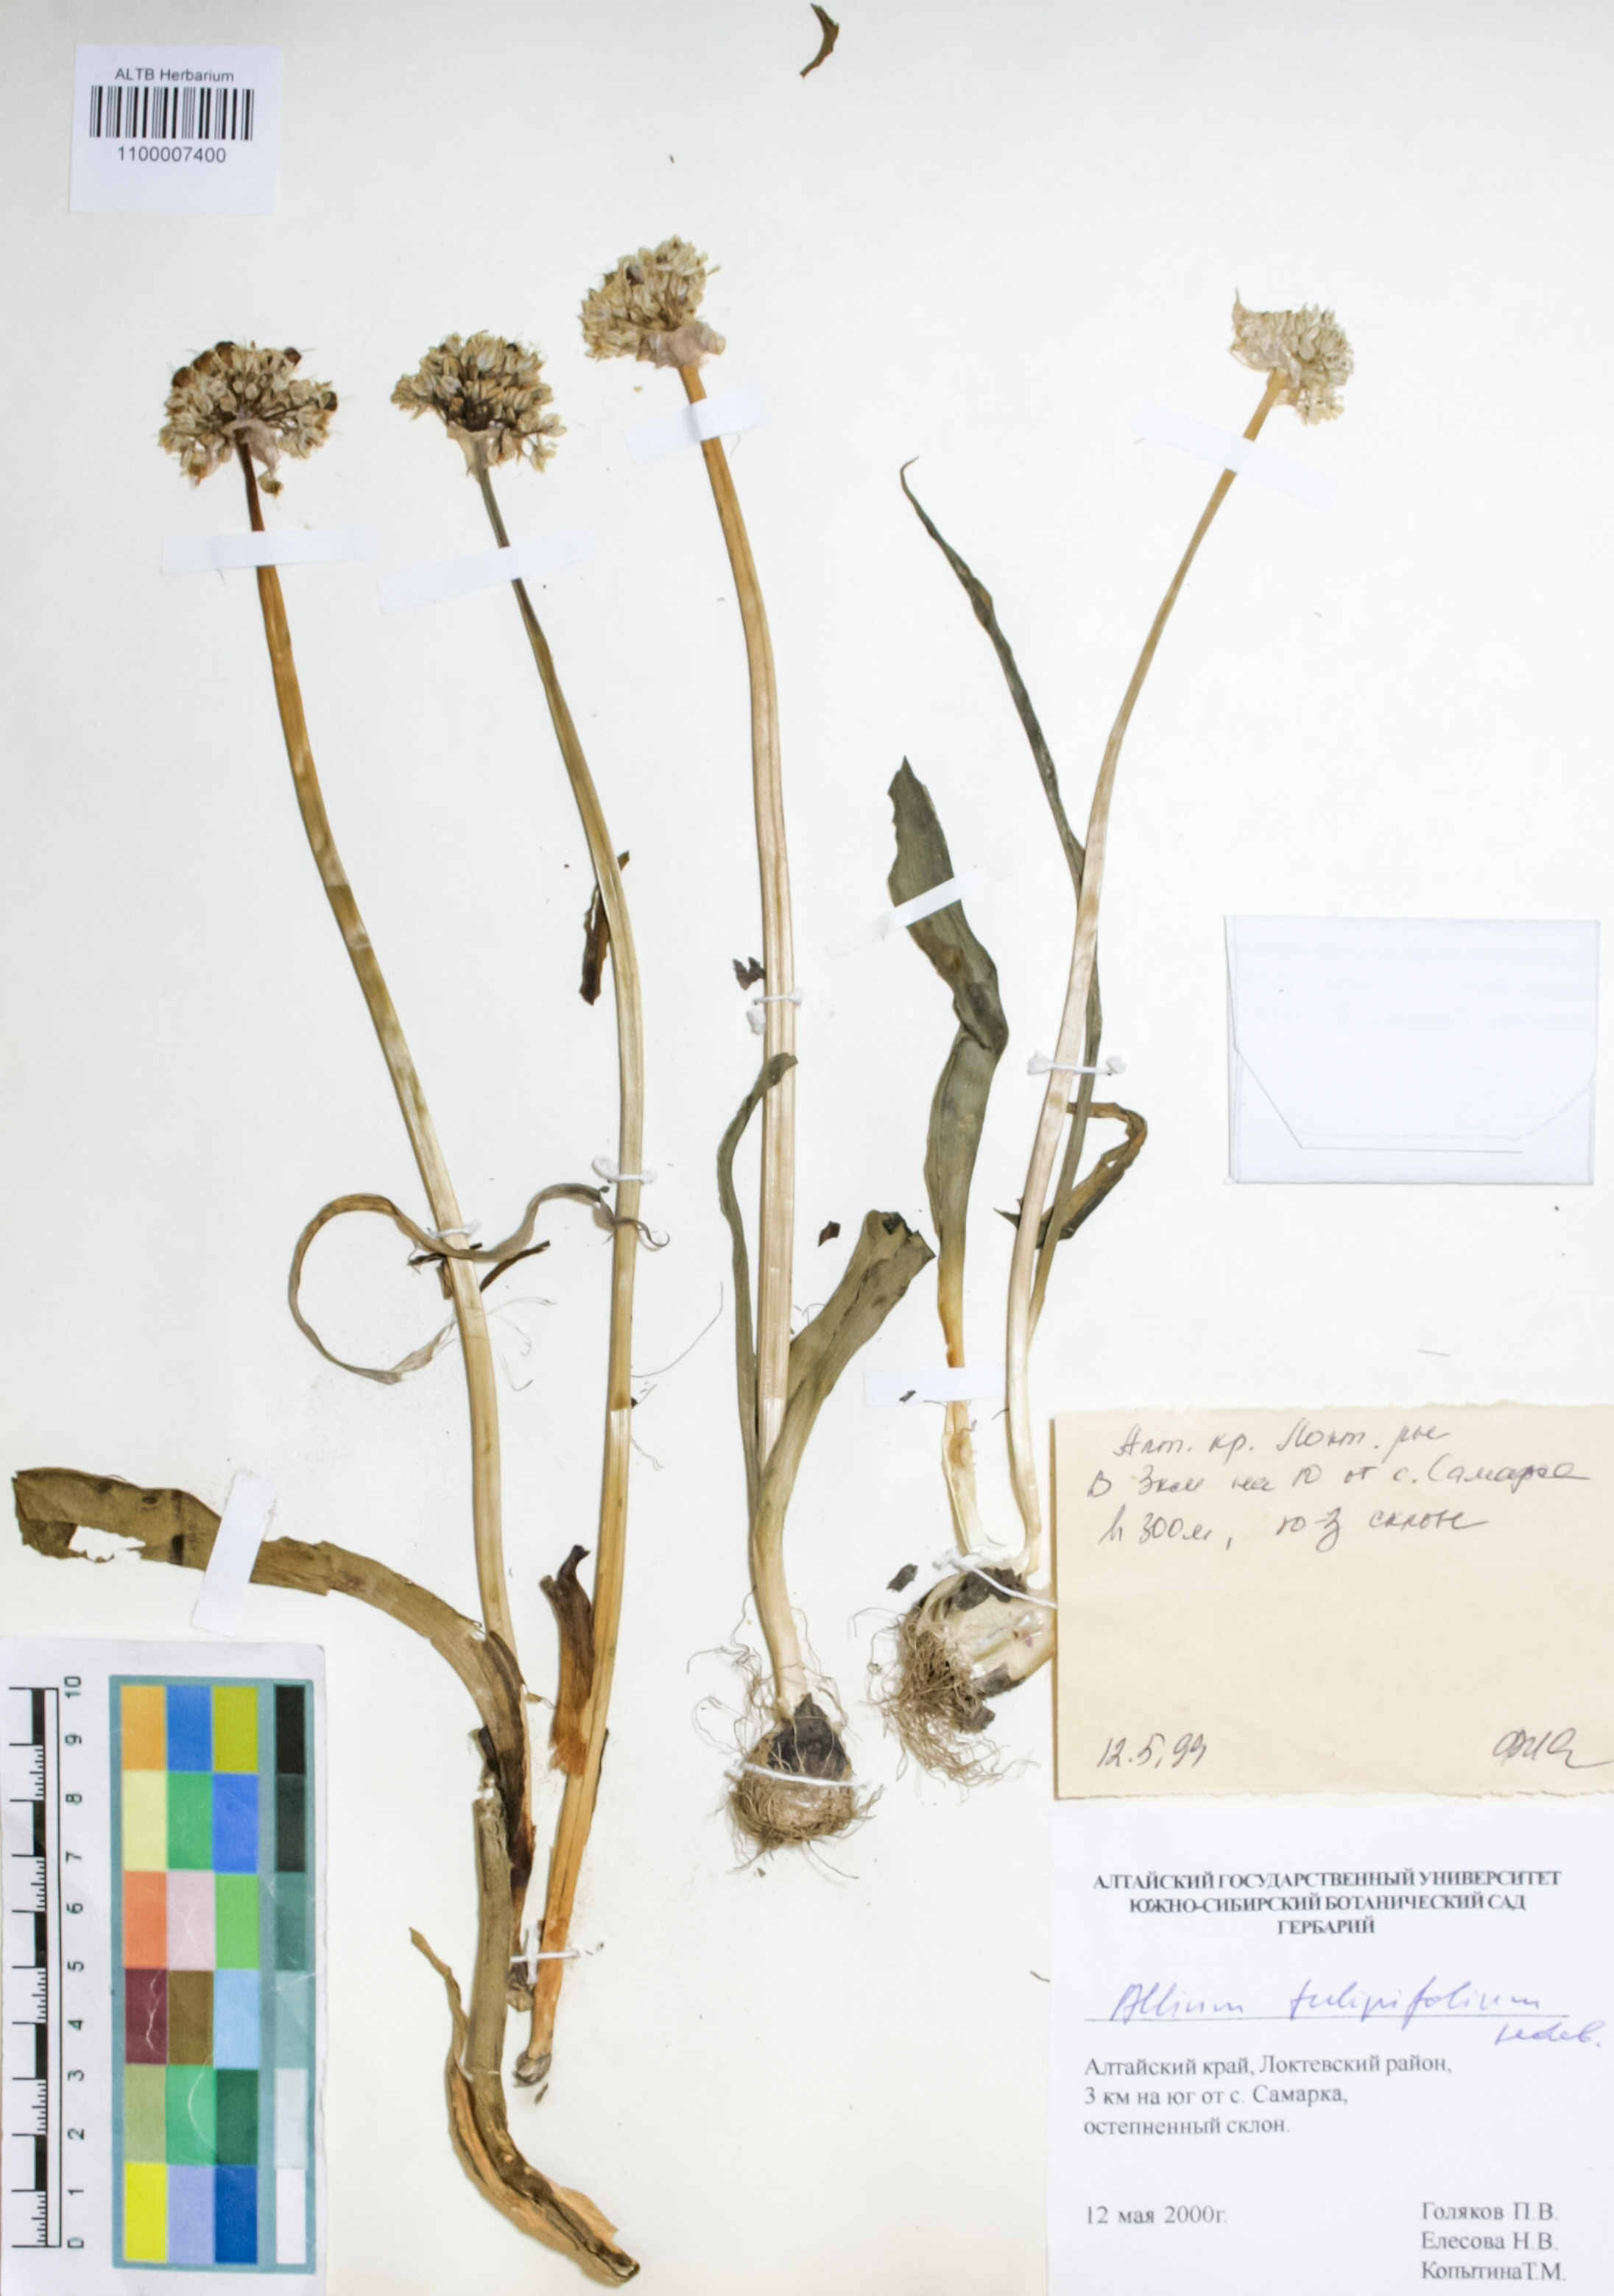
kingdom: Plantae
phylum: Tracheophyta
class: Liliopsida
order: Asparagales
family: Amaryllidaceae
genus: Allium
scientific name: Allium tulipifolium
